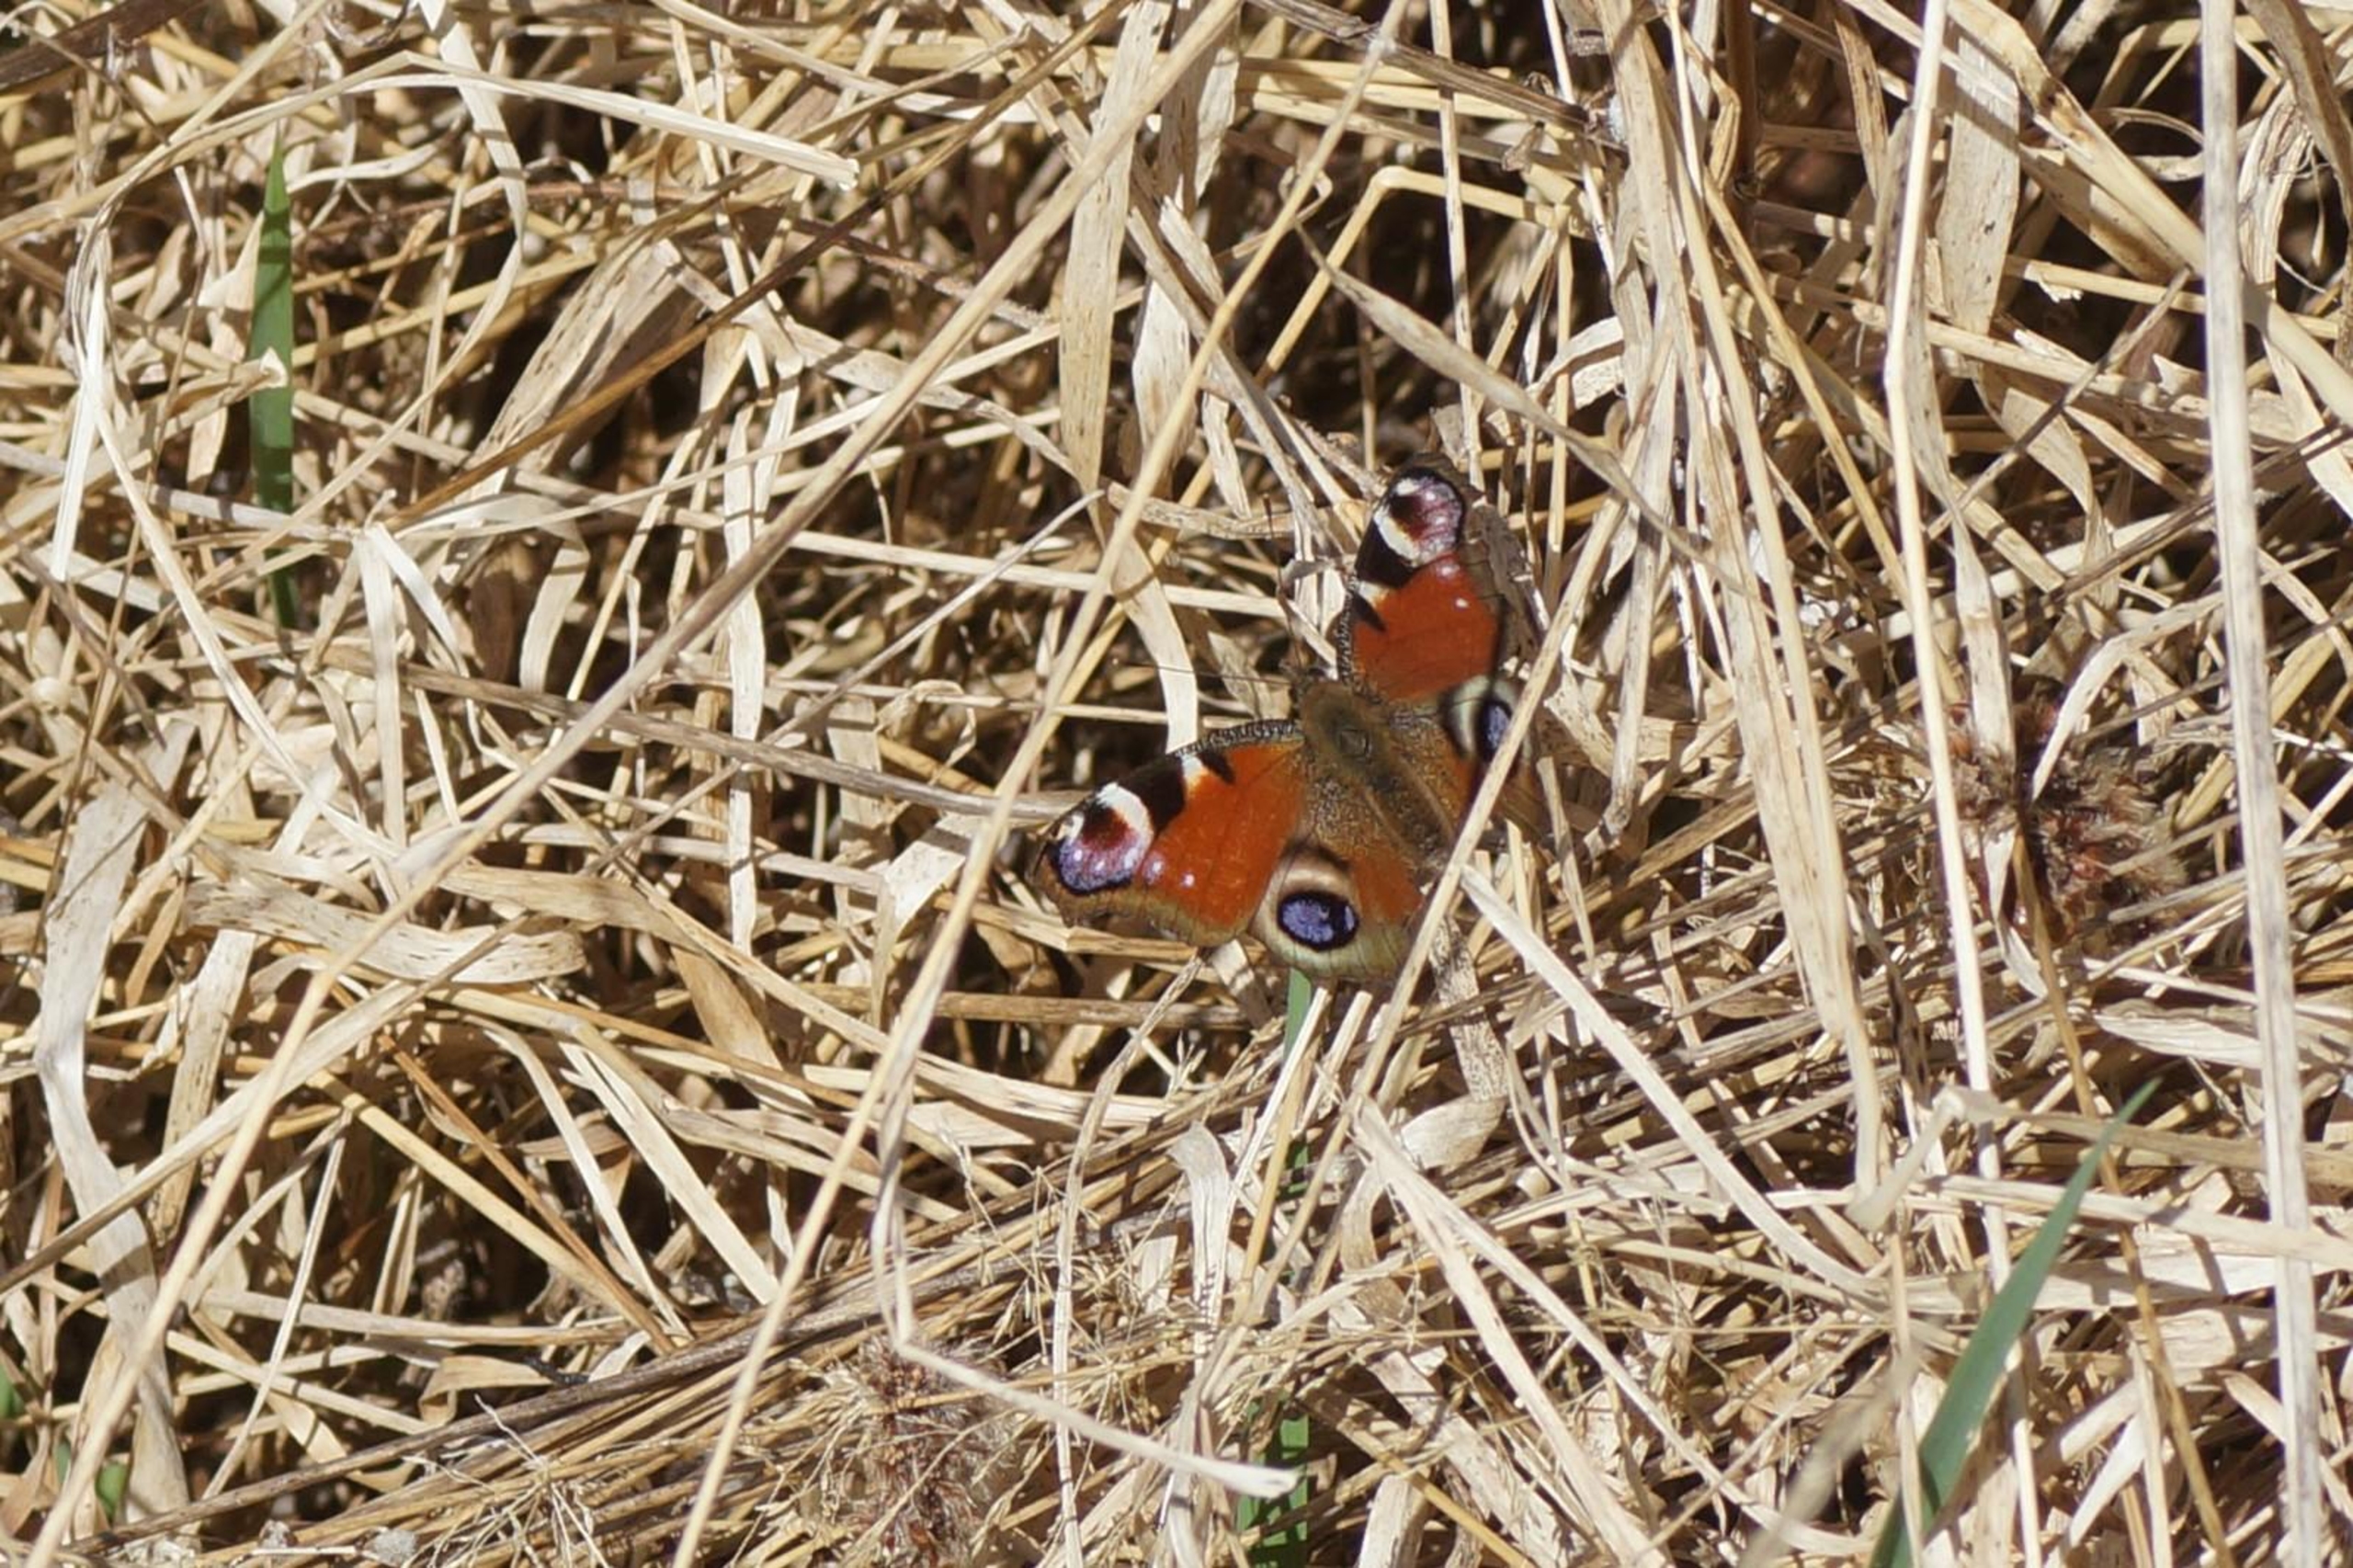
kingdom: Animalia
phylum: Arthropoda
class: Insecta
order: Lepidoptera
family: Nymphalidae
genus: Aglais
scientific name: Aglais io
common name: Dagpåfugleøje
